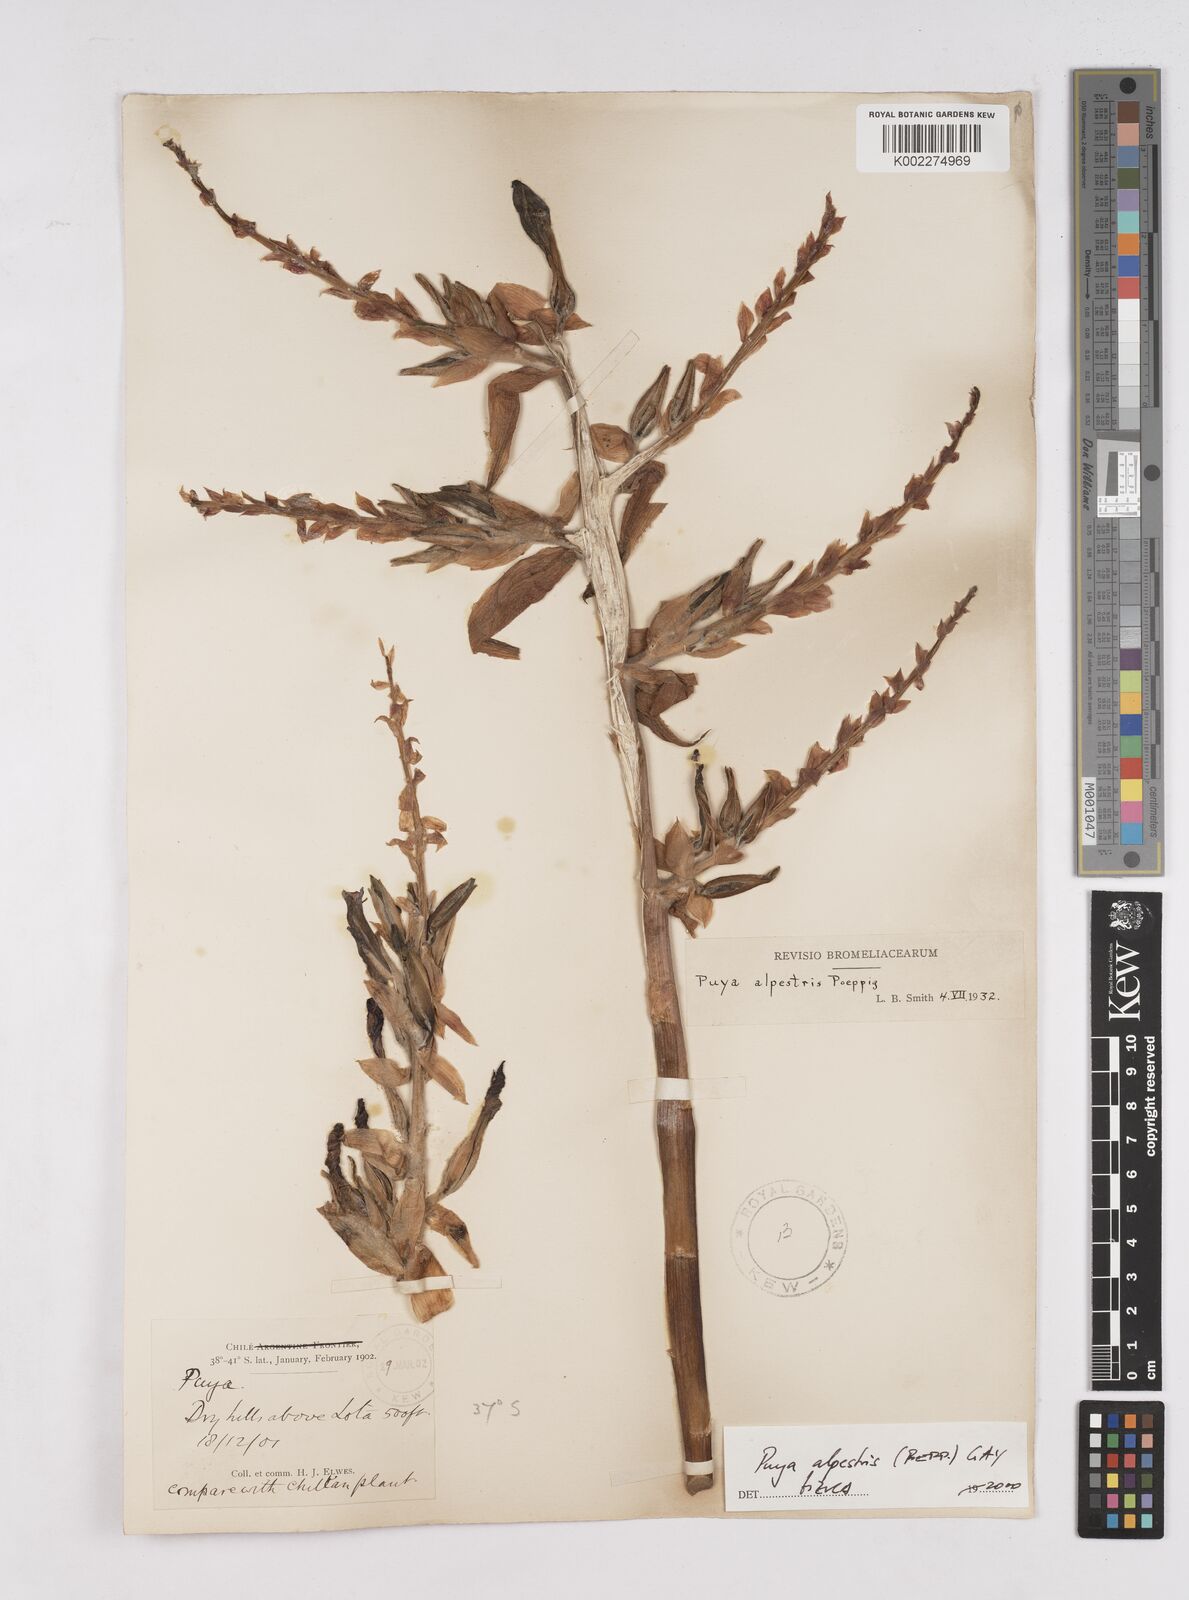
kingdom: Plantae
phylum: Tracheophyta
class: Liliopsida
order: Poales
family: Bromeliaceae
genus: Puya
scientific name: Puya alpestris
